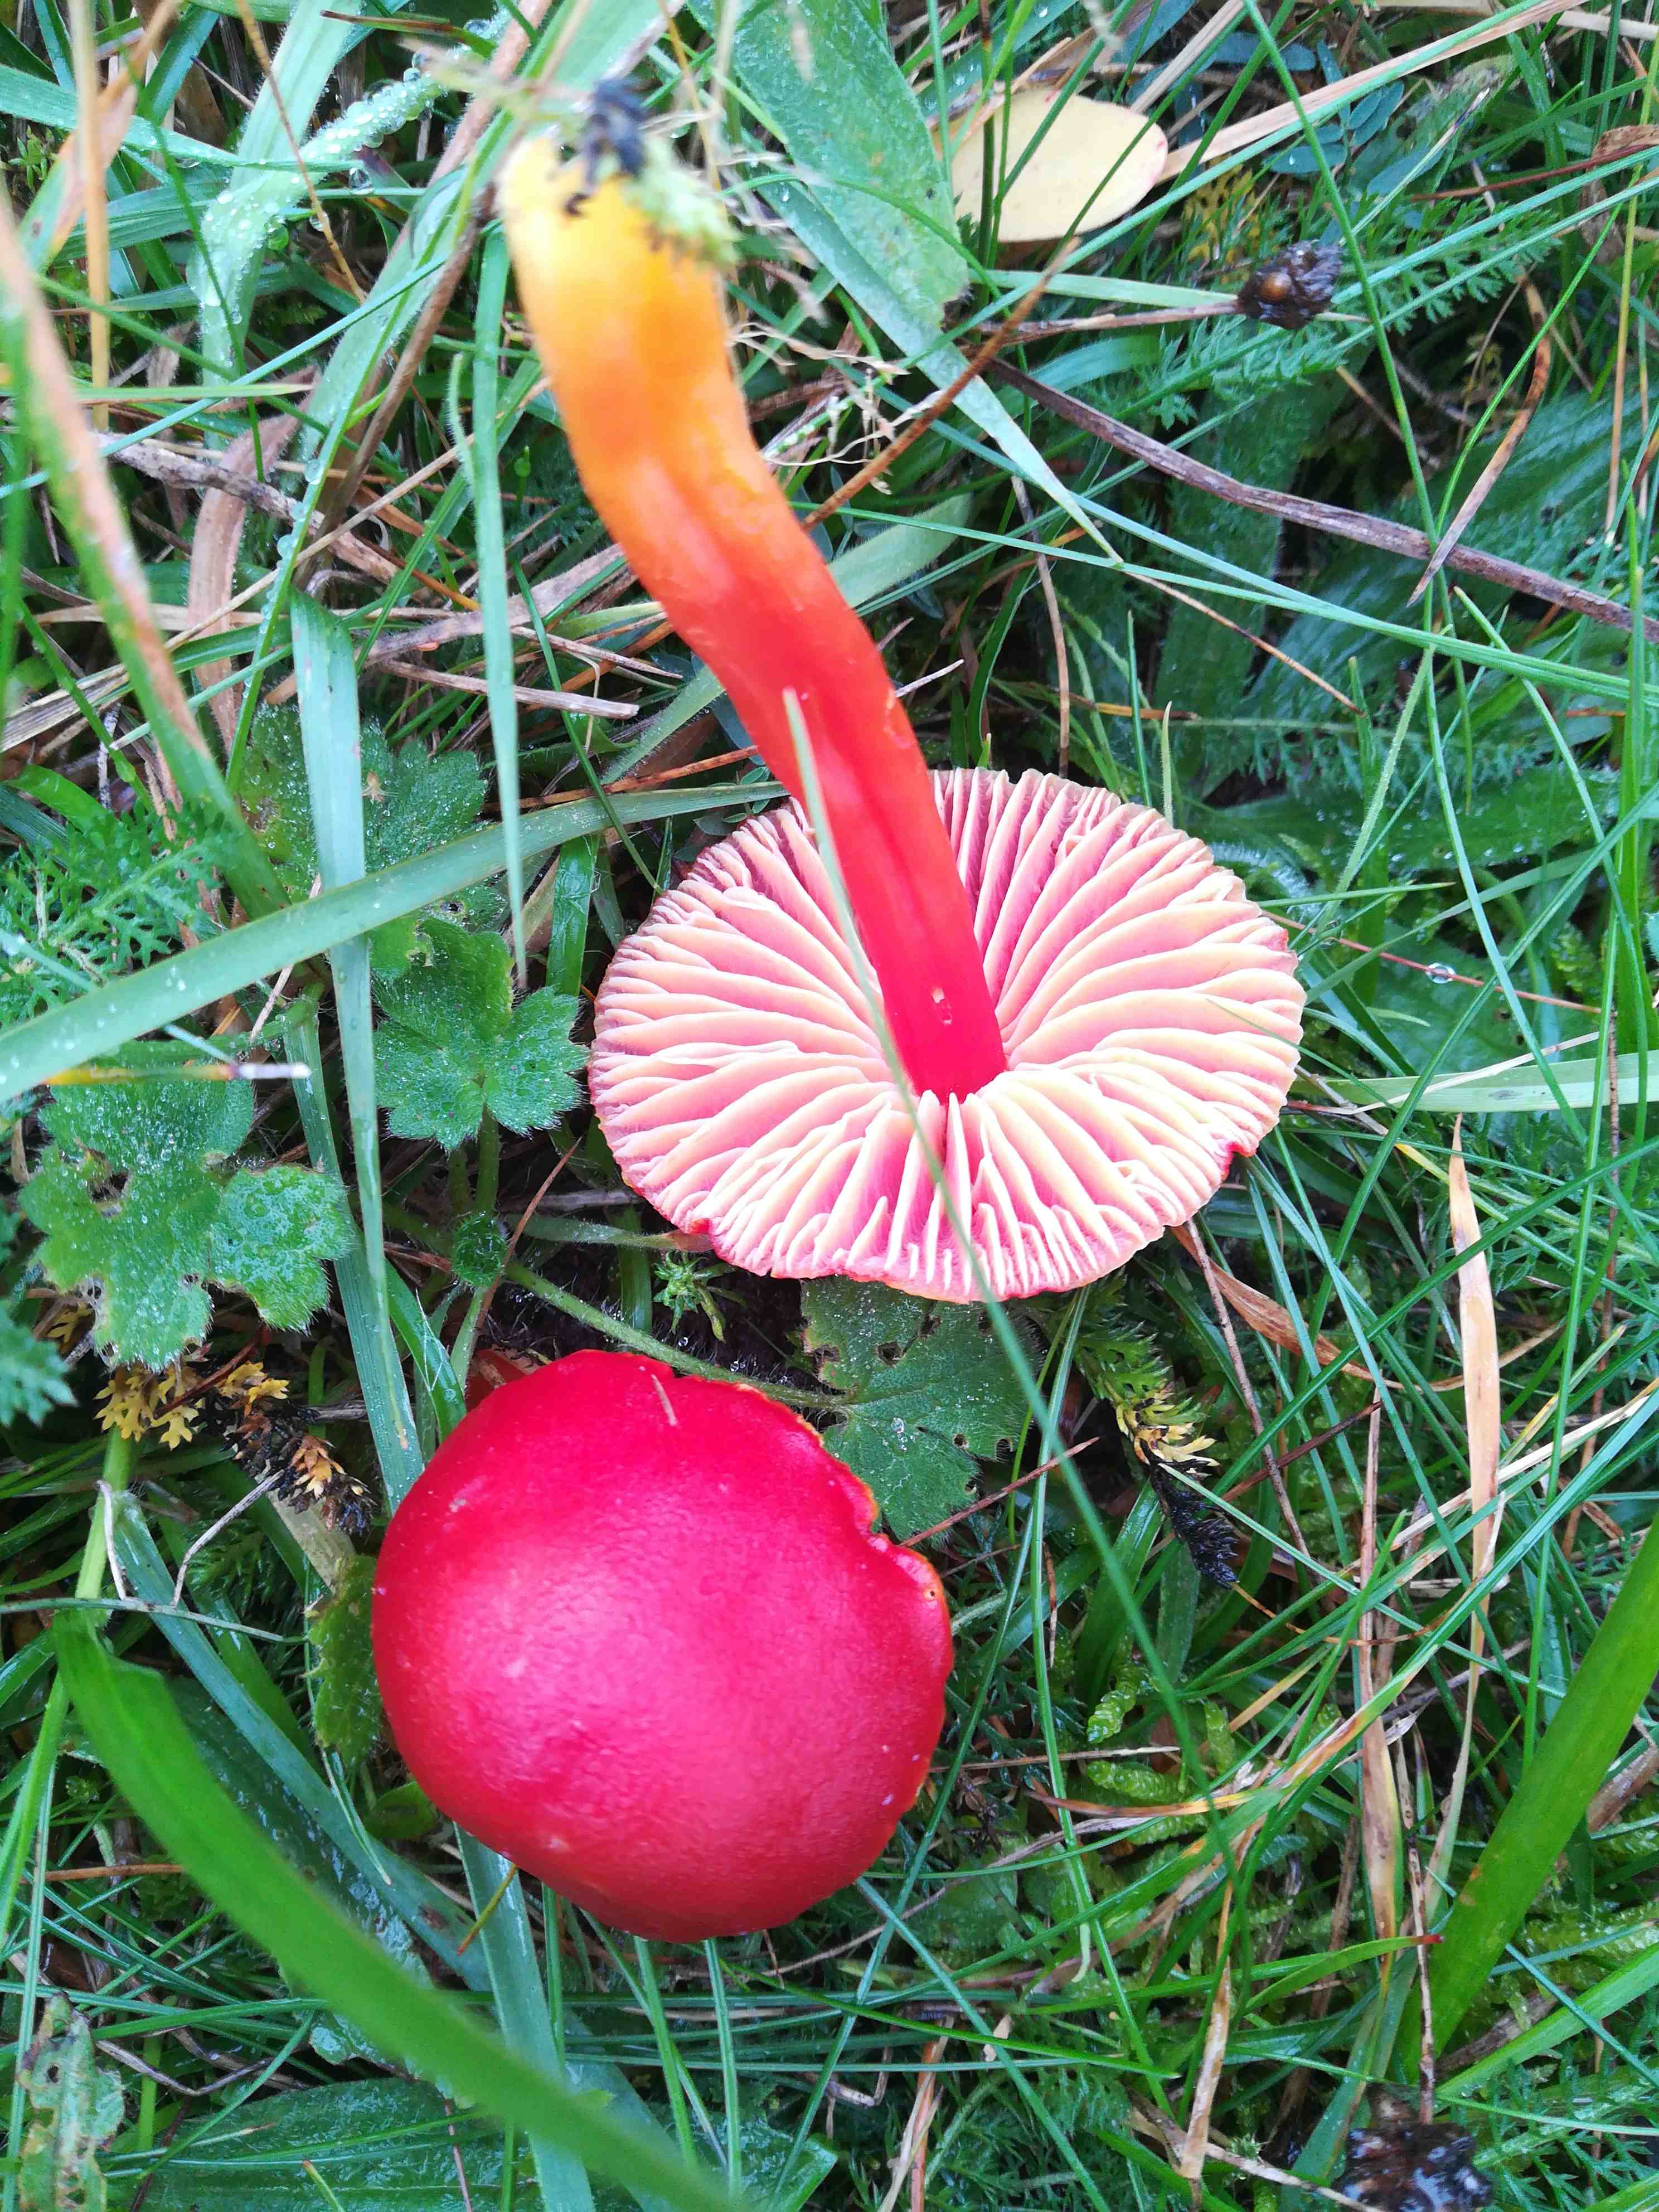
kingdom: Fungi
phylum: Basidiomycota
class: Agaricomycetes
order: Agaricales
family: Hygrophoraceae
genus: Hygrocybe
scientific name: Hygrocybe coccinea
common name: cinnober-vokshat
